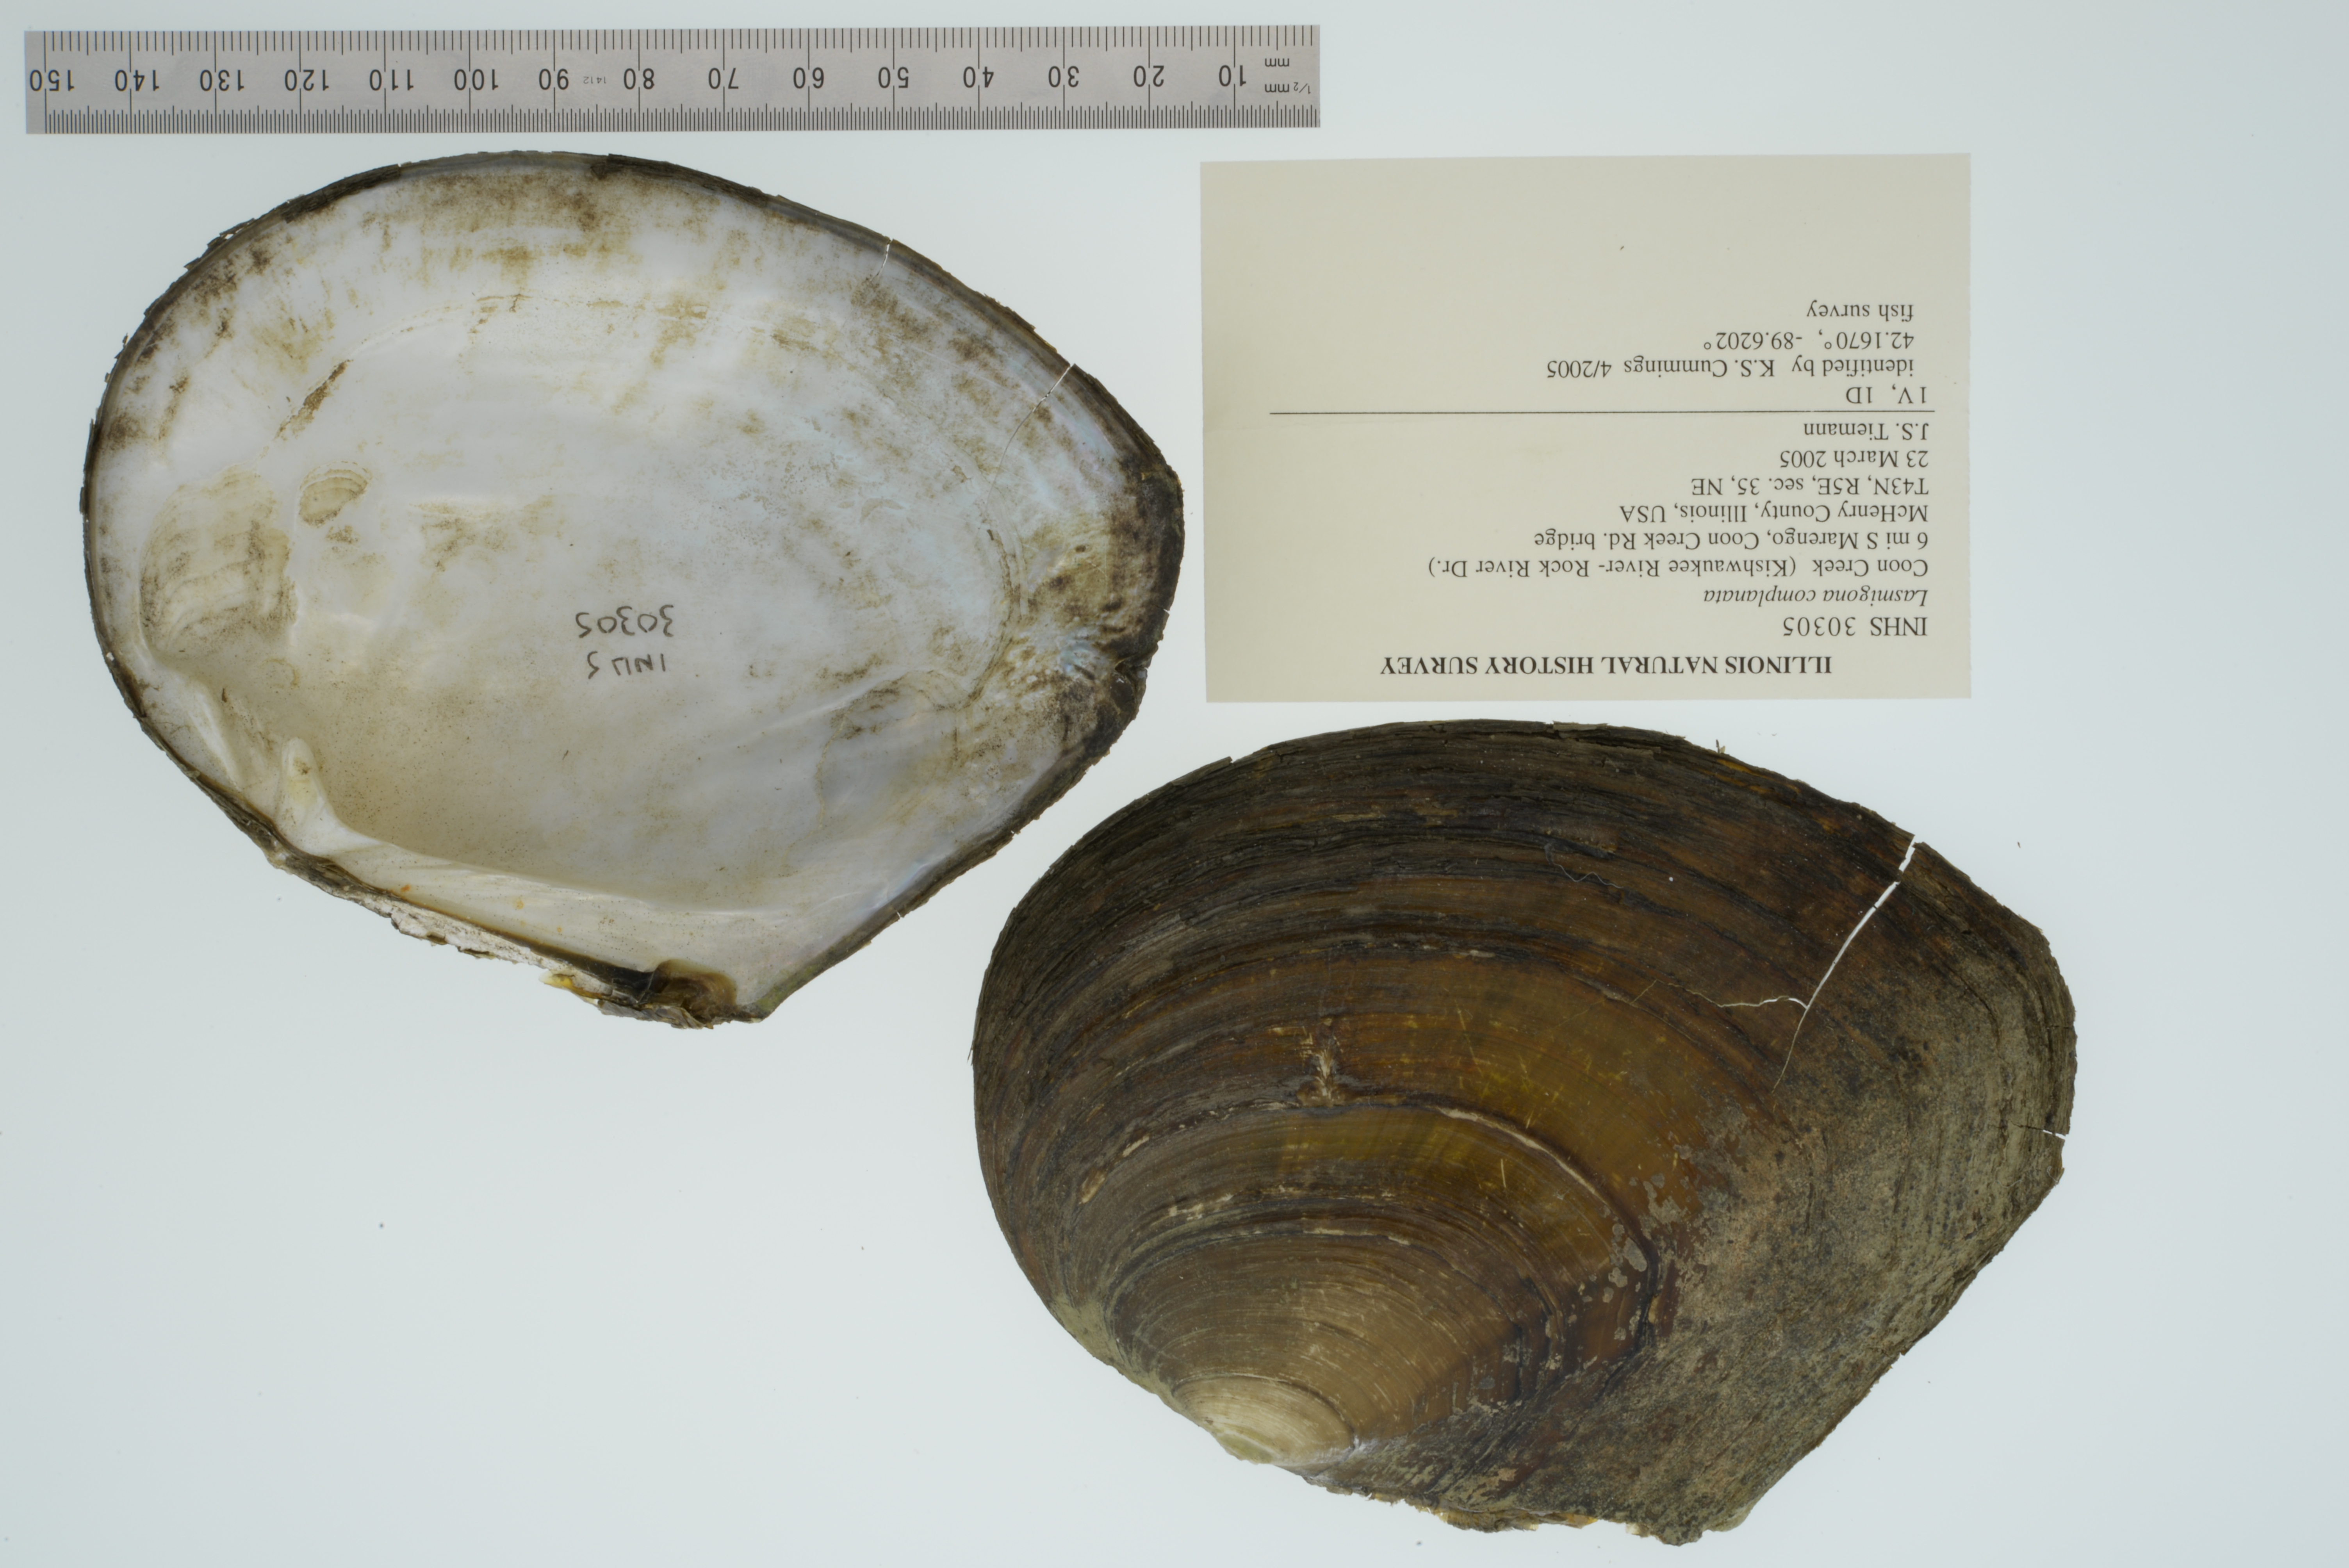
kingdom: Animalia
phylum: Mollusca
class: Bivalvia
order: Unionida
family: Unionidae
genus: Lasmigona
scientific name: Lasmigona complanata
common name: White heelsplitter
